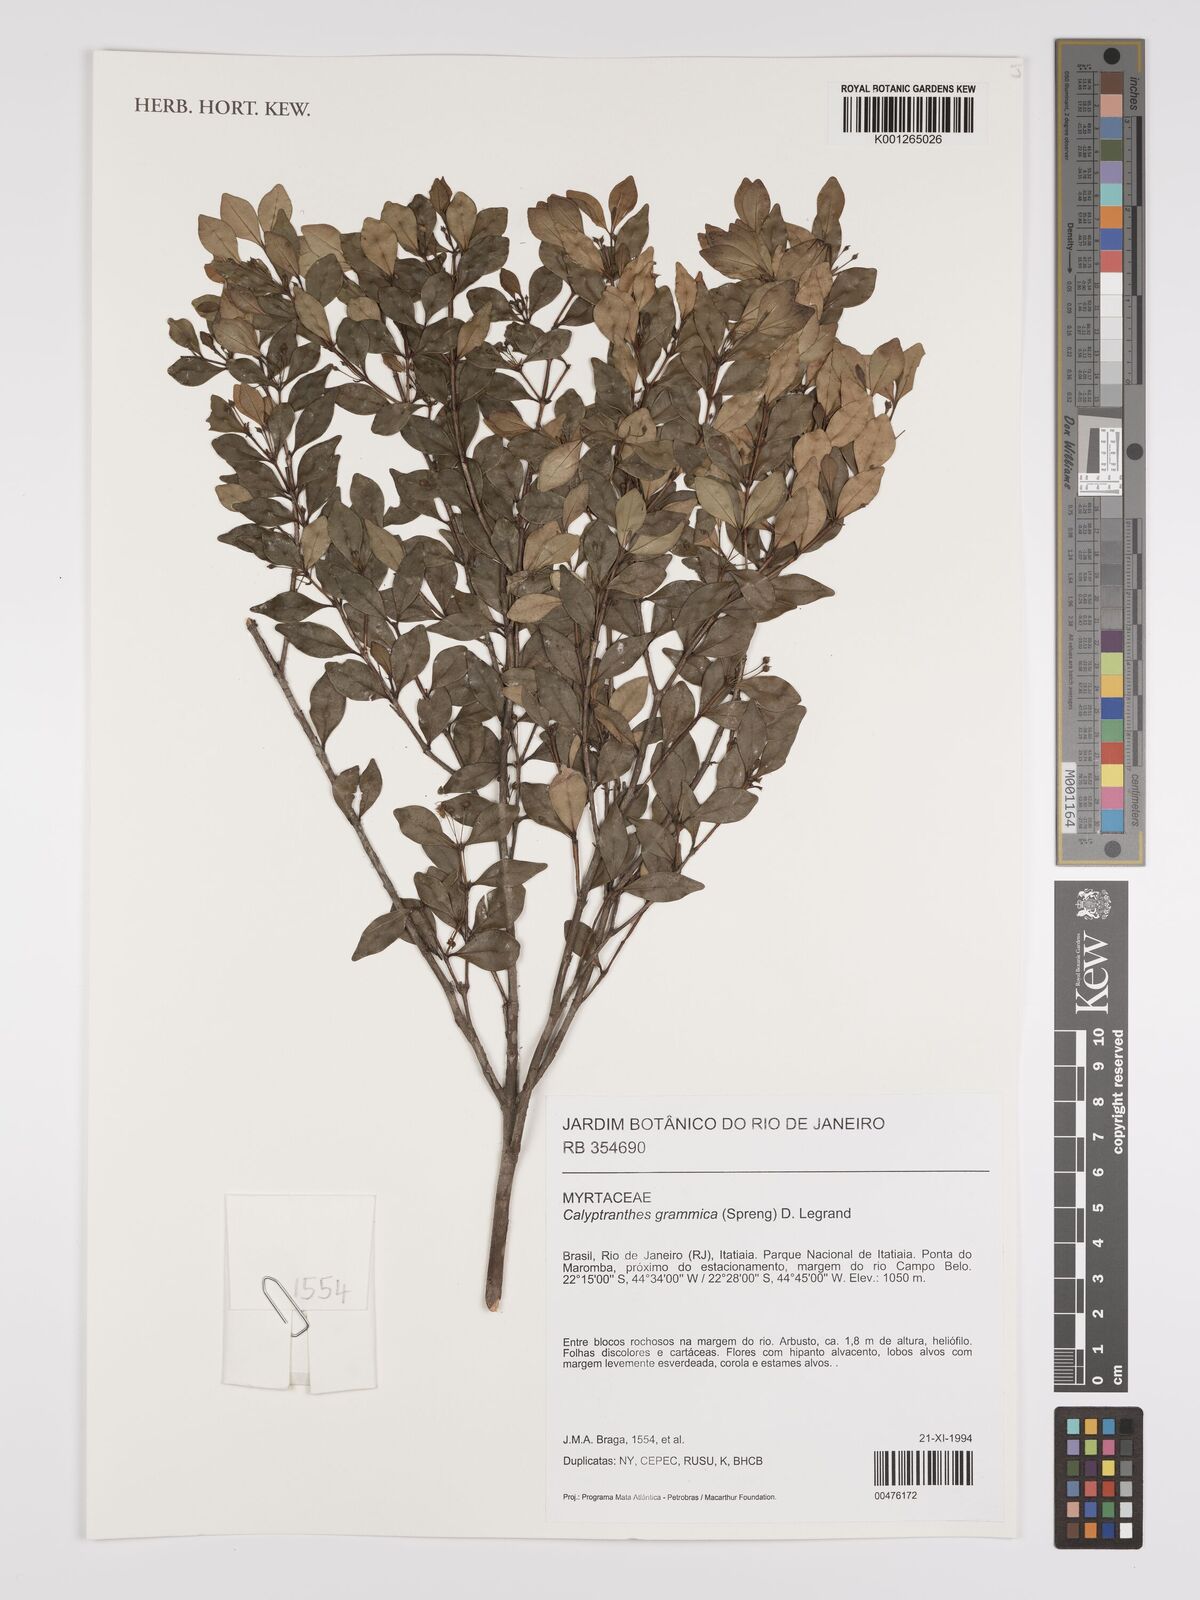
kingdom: Plantae
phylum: Tracheophyta
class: Magnoliopsida
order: Myrtales
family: Myrtaceae
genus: Myrcia
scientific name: Myrcia grammica
